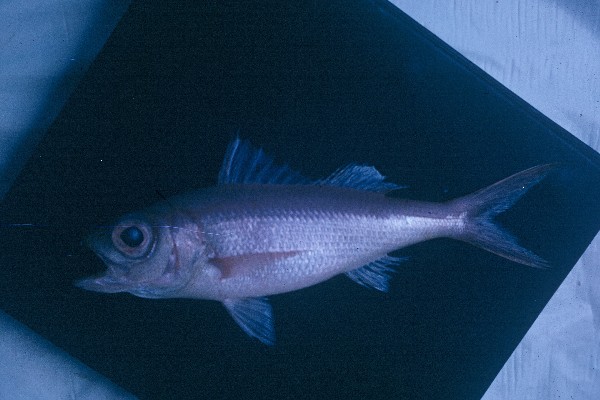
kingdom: Animalia
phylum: Chordata
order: Perciformes
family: Lutjanidae
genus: Etelis
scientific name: Etelis coruscans
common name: Flame snapper
